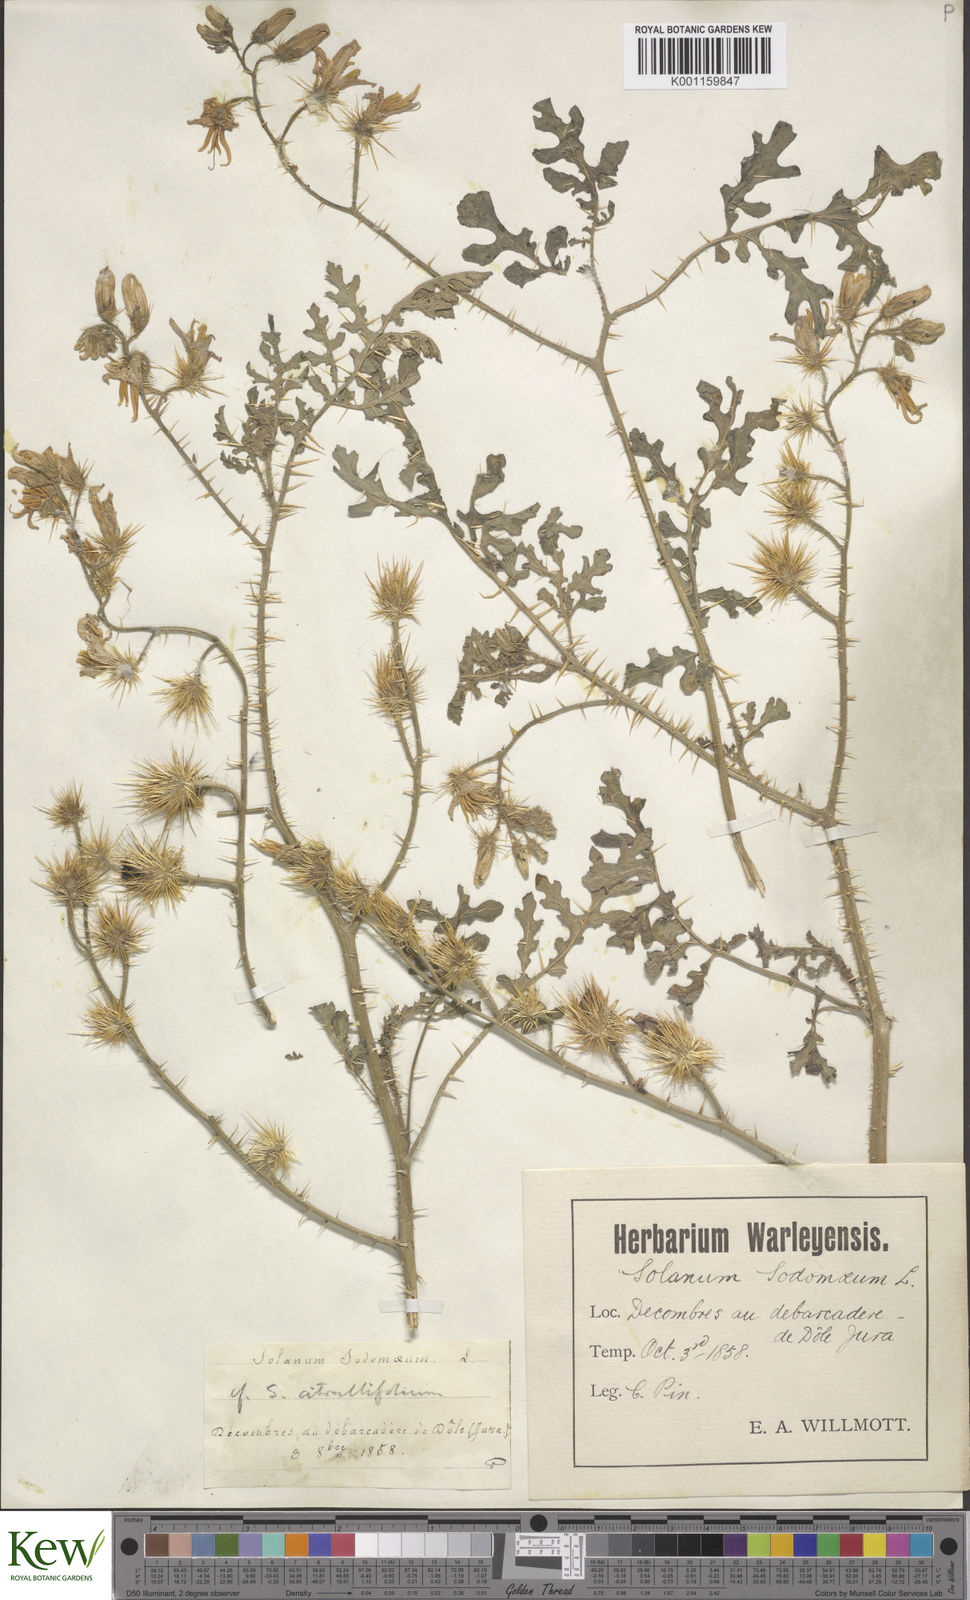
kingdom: Plantae
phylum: Tracheophyta
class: Magnoliopsida
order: Solanales
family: Solanaceae
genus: Solanum
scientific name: Solanum heterodoxum
